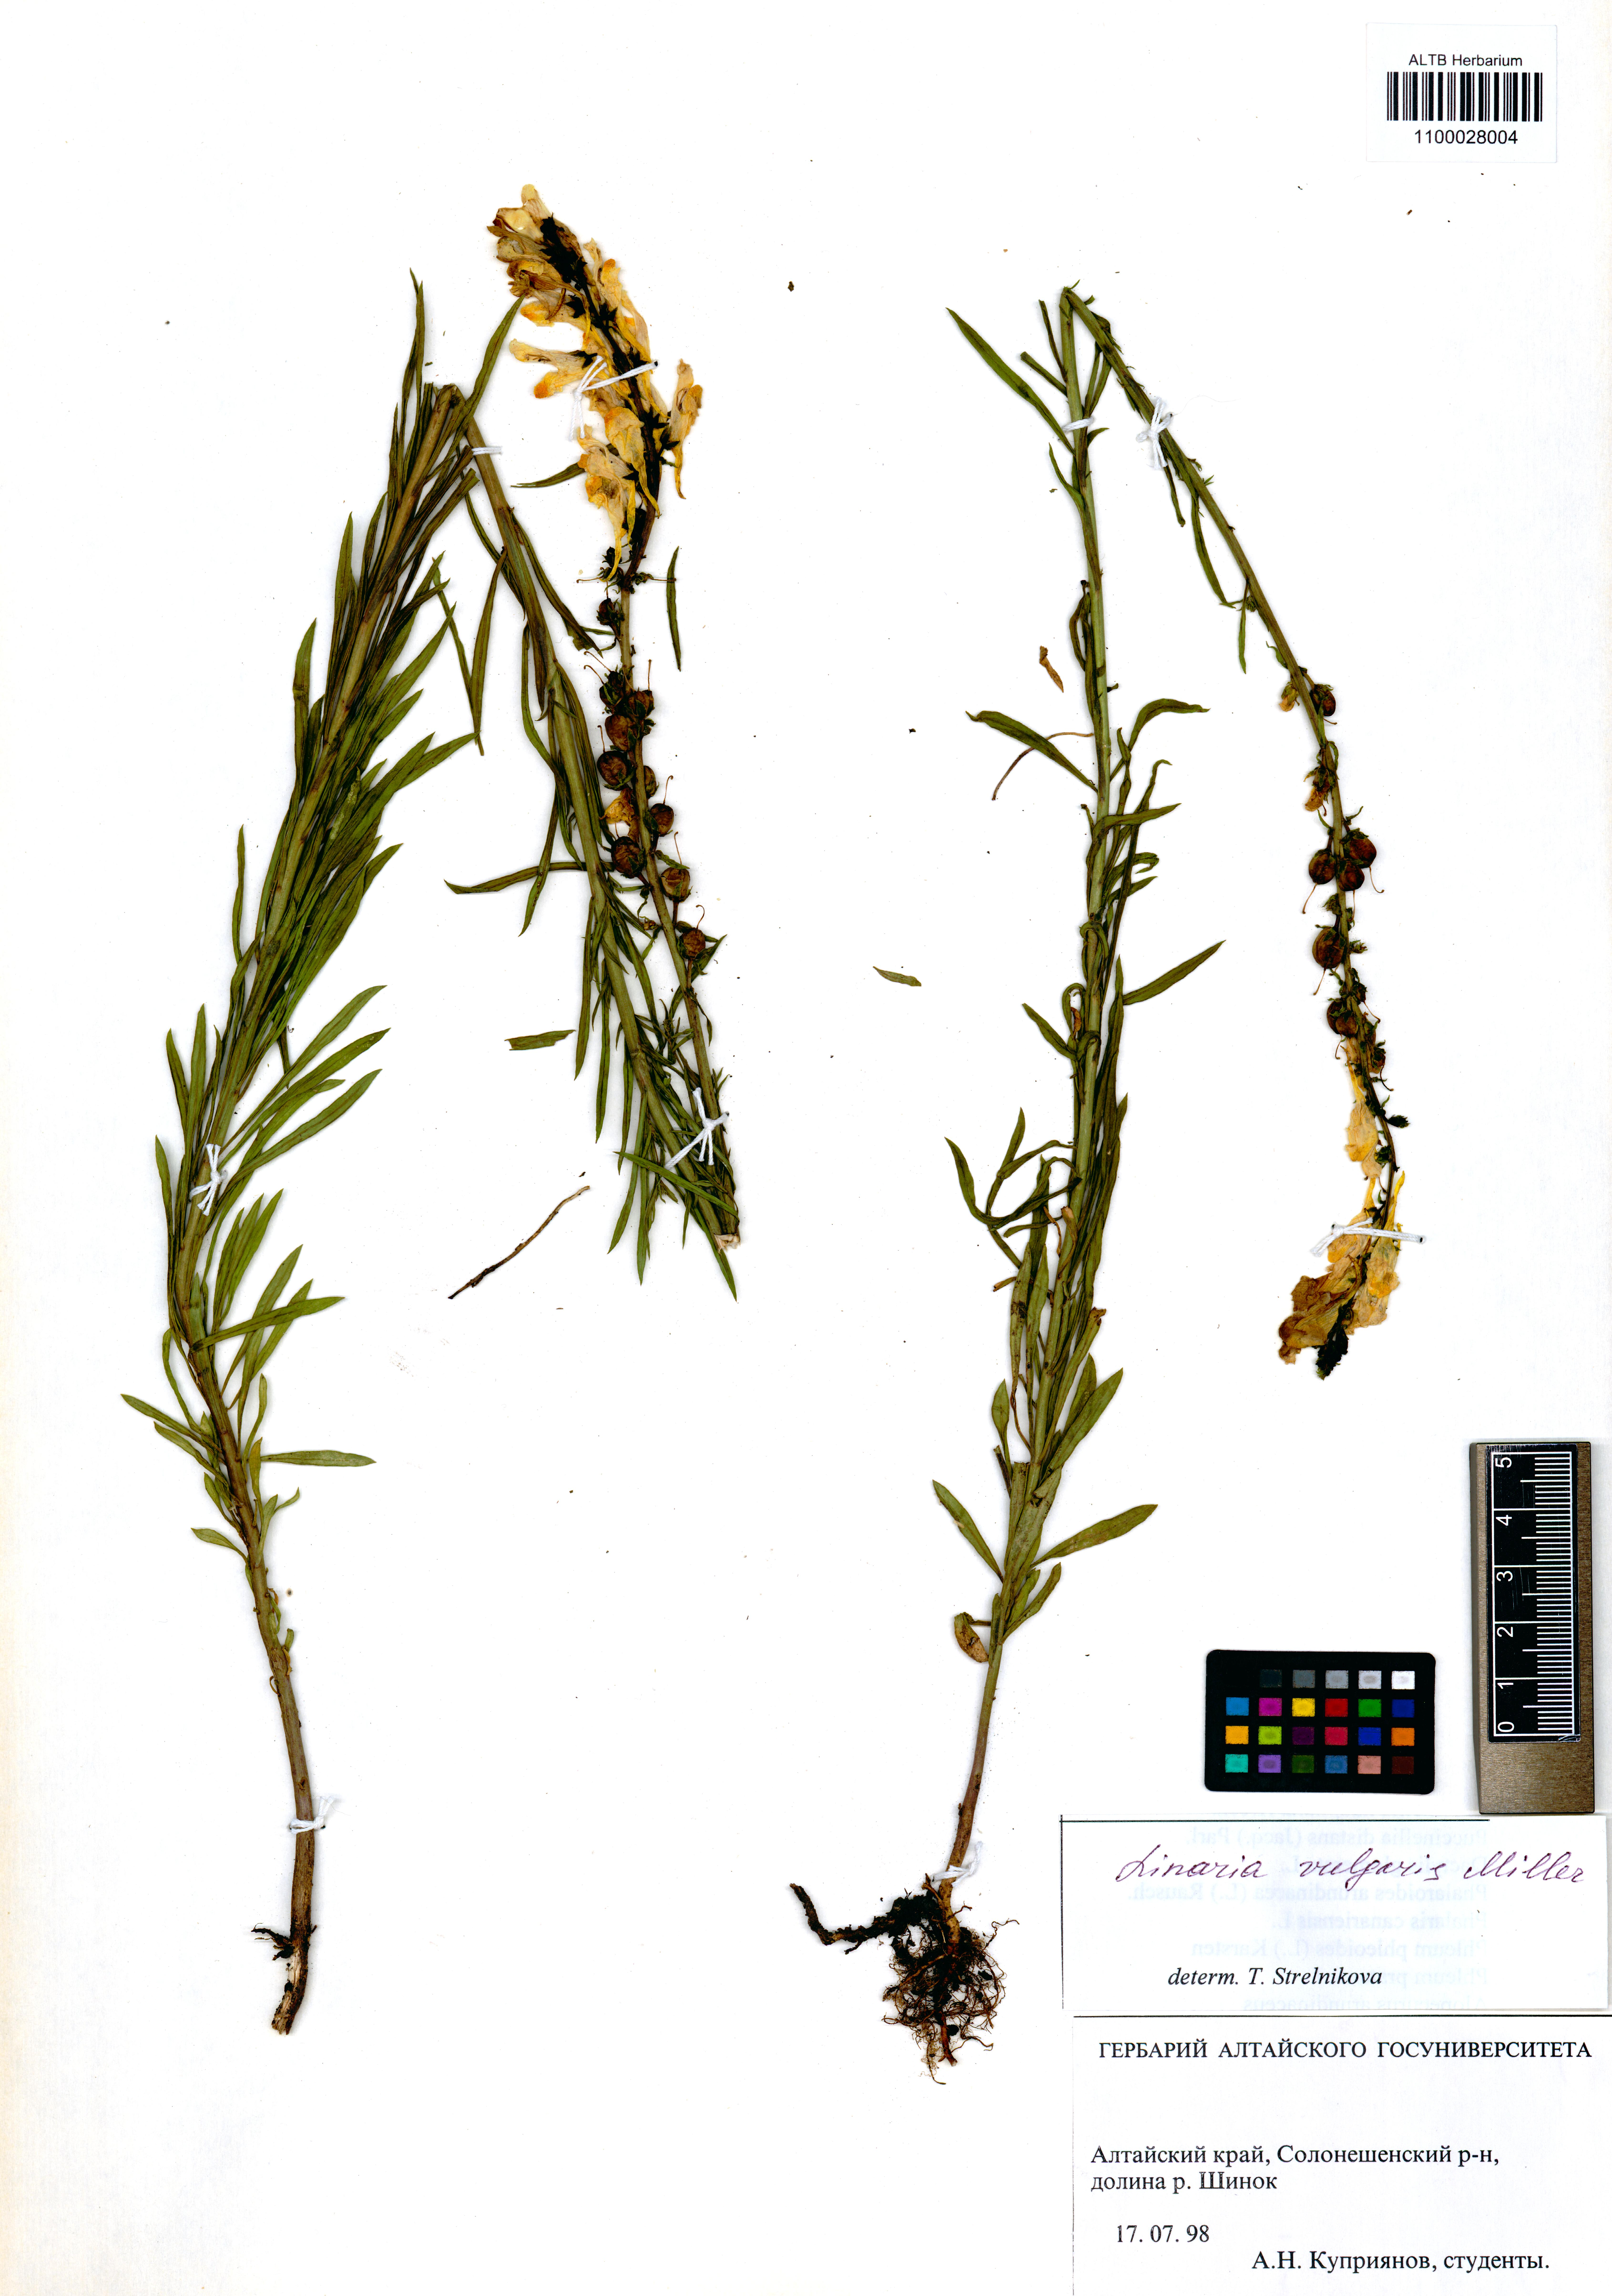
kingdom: Plantae
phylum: Tracheophyta
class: Magnoliopsida
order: Lamiales
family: Plantaginaceae
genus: Linaria
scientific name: Linaria vulgaris
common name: Butter and eggs
